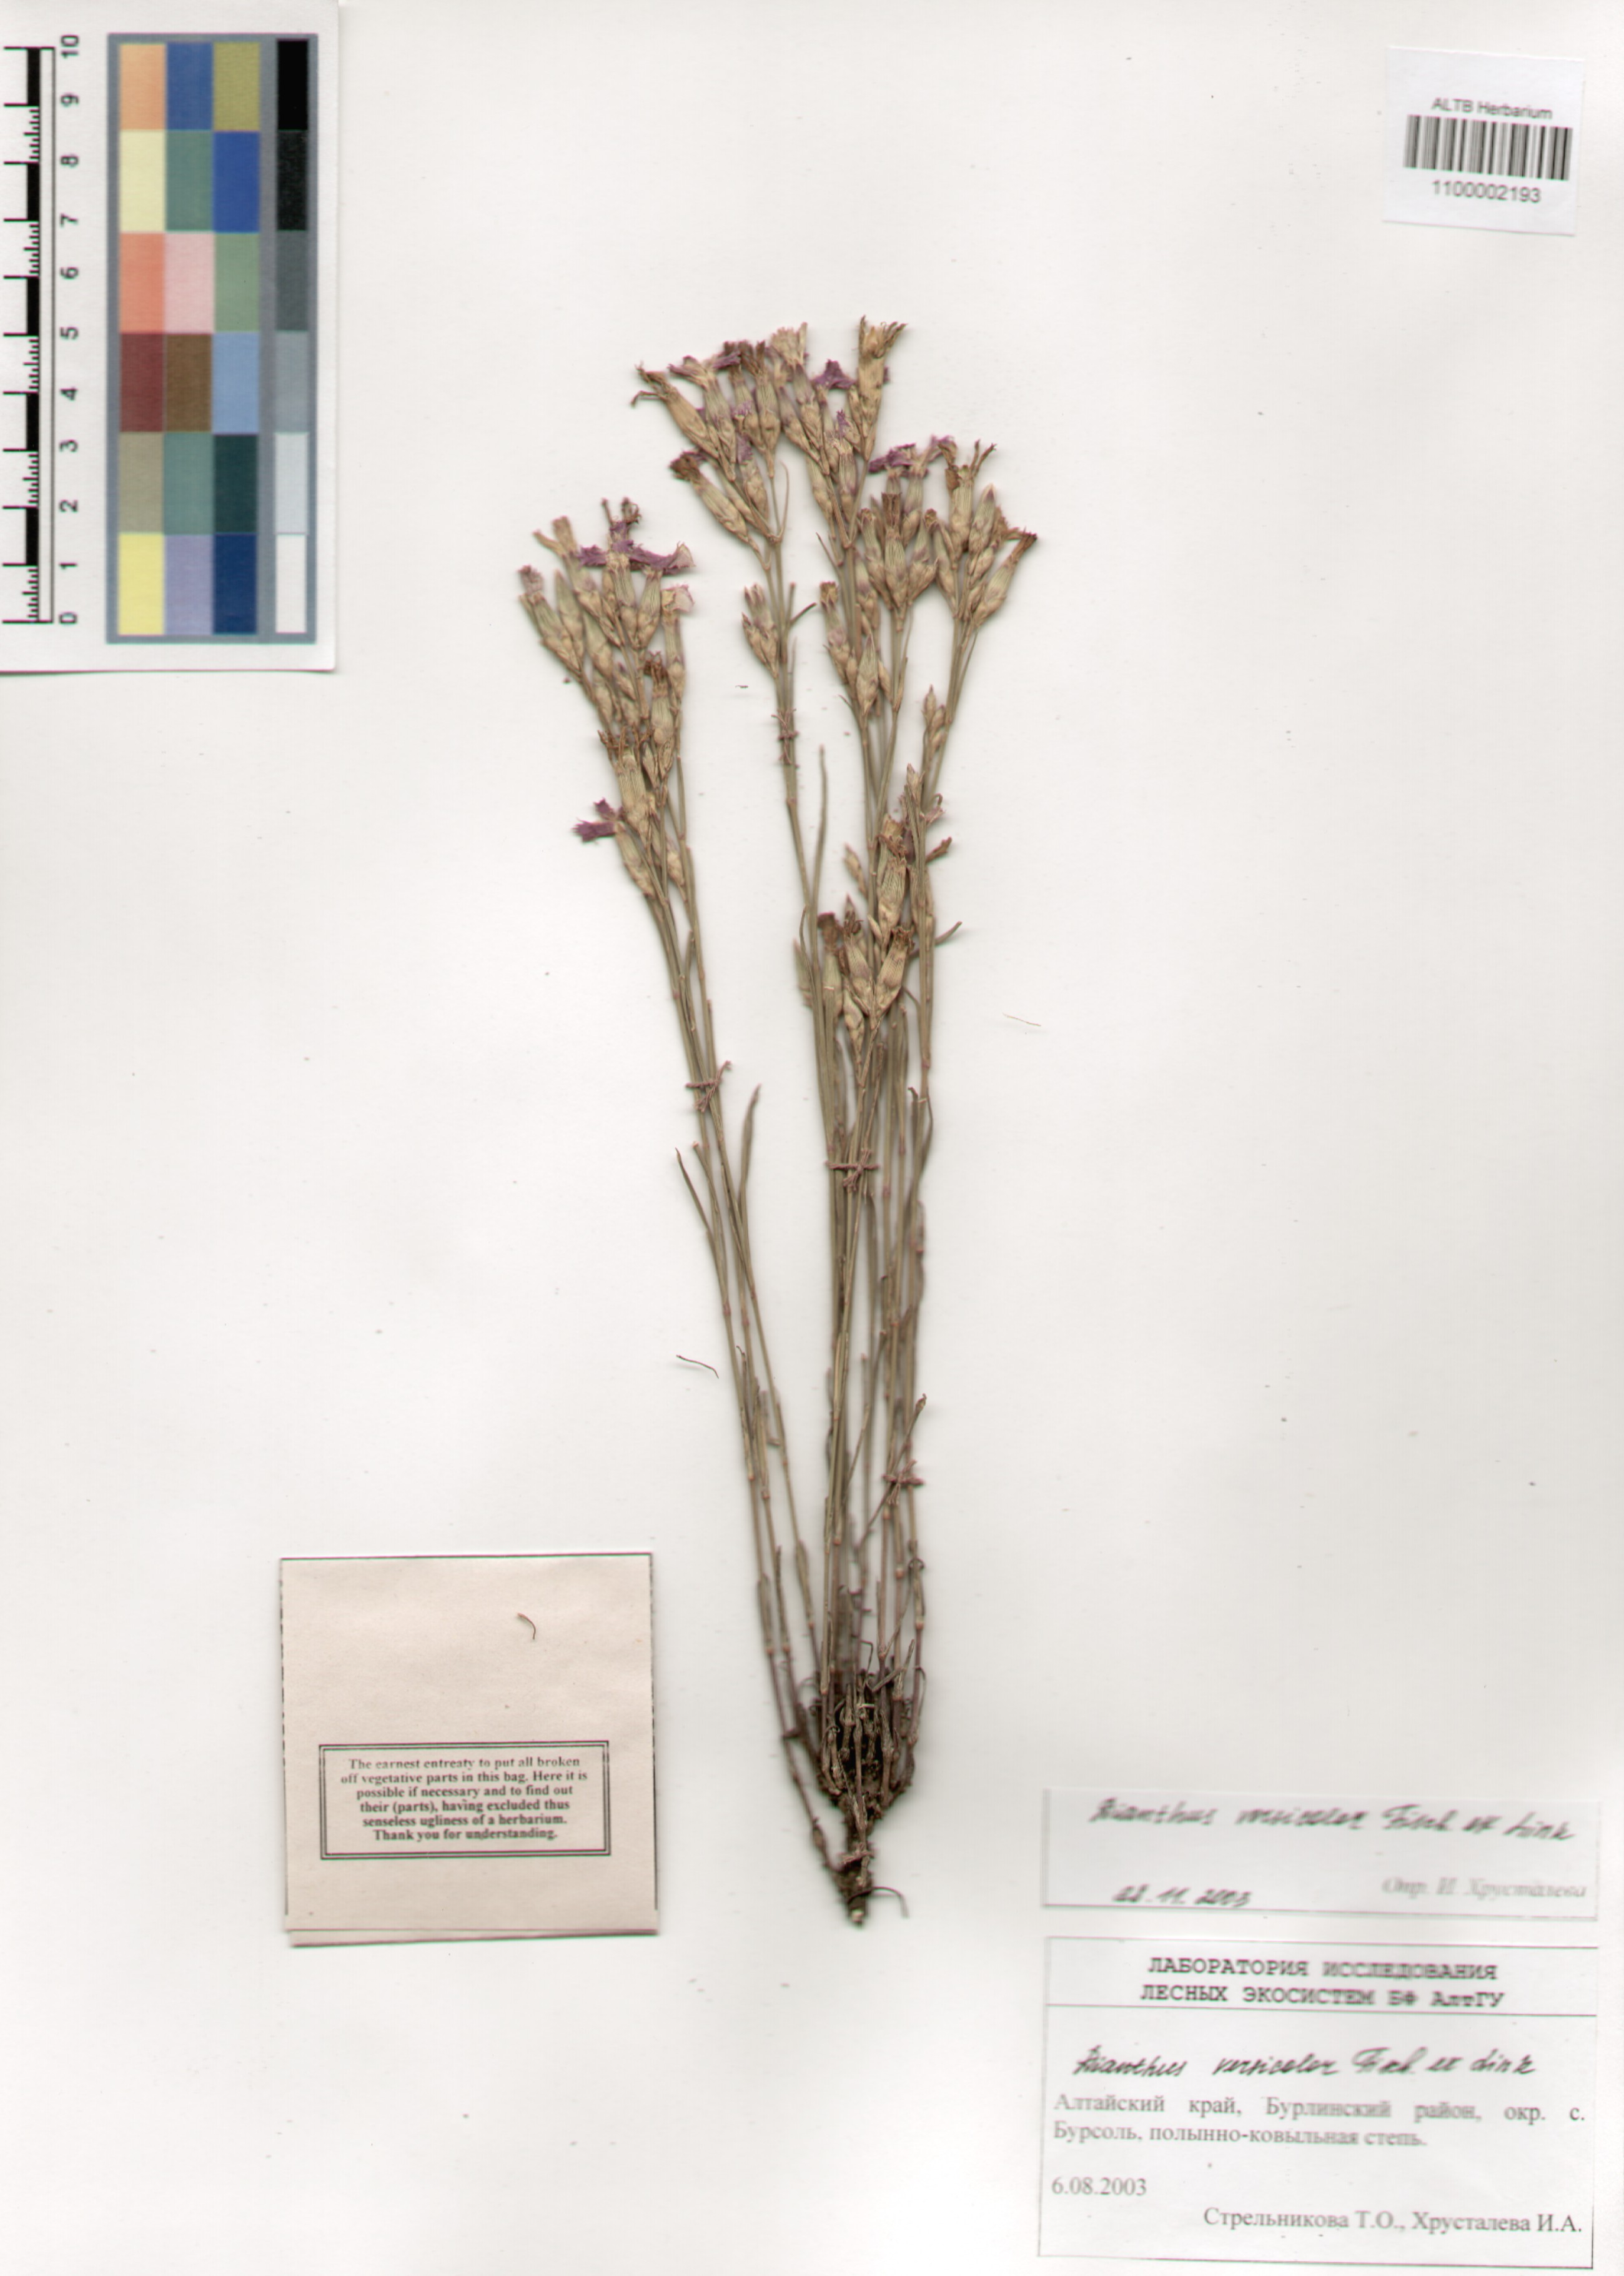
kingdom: Plantae
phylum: Tracheophyta
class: Magnoliopsida
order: Caryophyllales
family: Caryophyllaceae
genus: Dianthus
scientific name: Dianthus chinensis
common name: Rainbow pink
